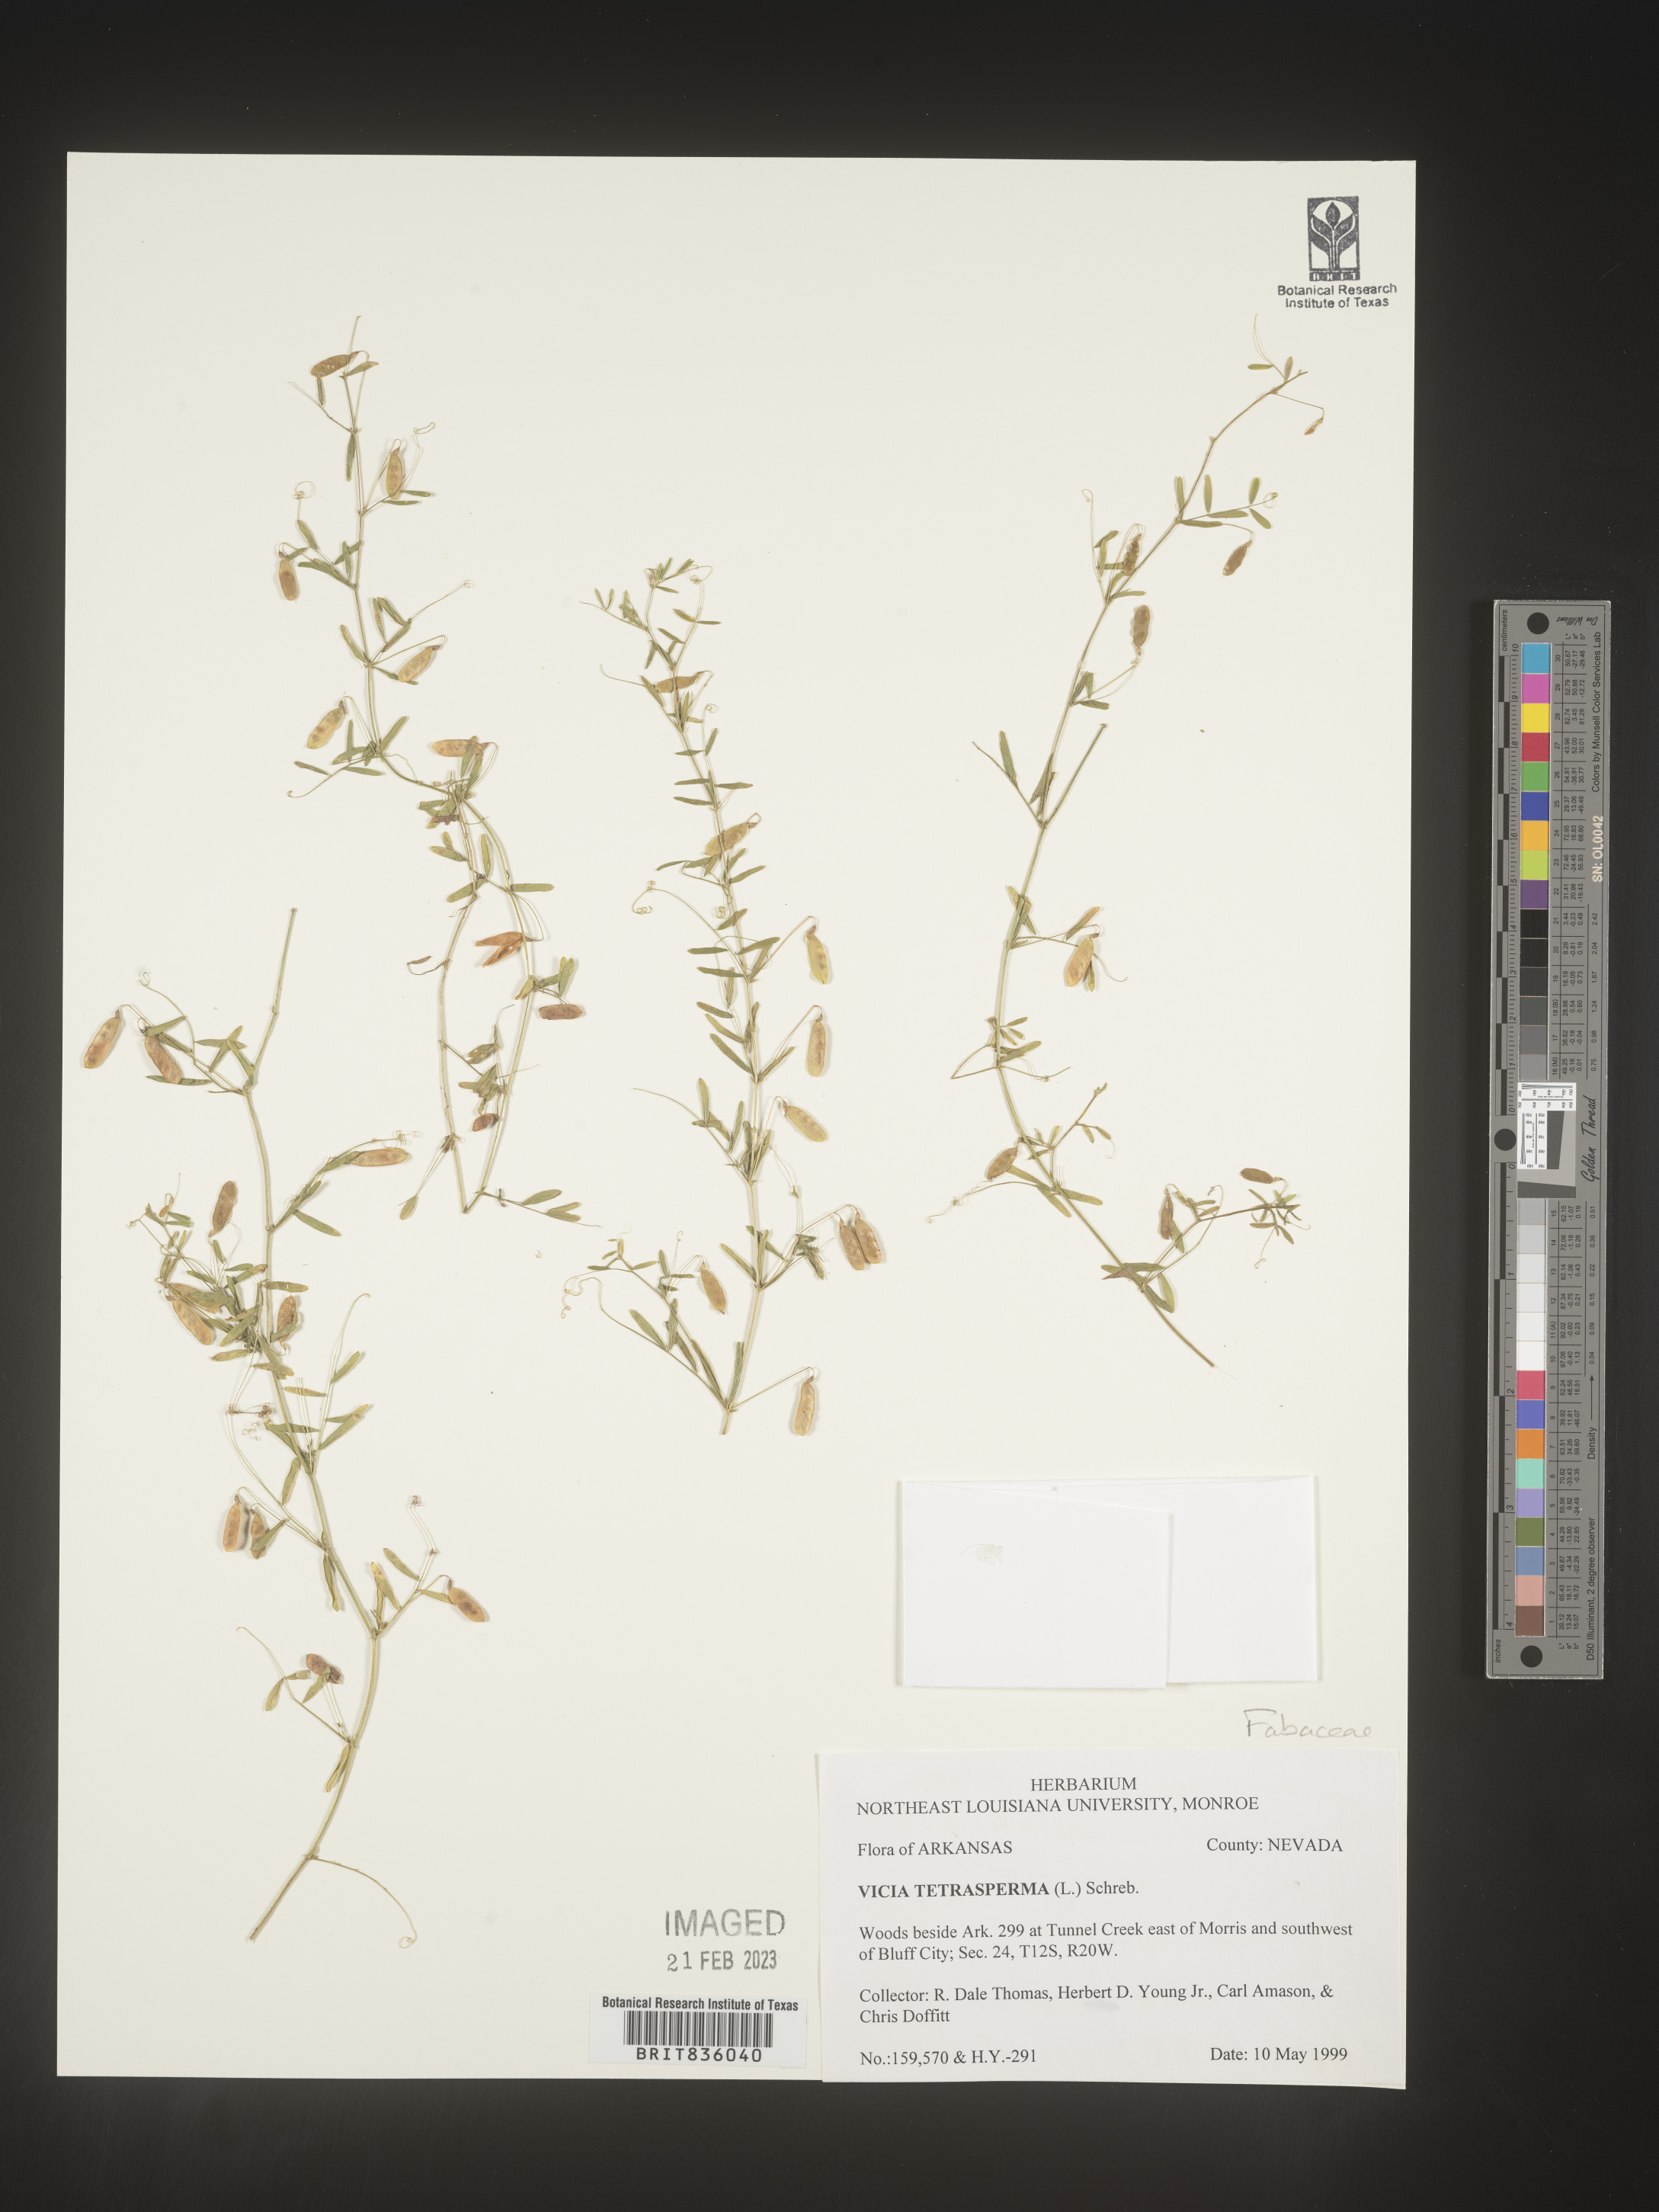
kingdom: Plantae
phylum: Tracheophyta
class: Magnoliopsida
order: Fabales
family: Fabaceae
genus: Vicia
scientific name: Vicia tetrasperma
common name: Smooth tare
